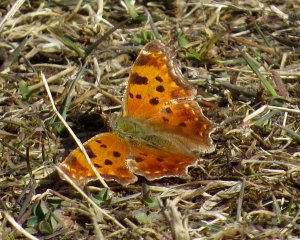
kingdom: Animalia
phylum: Arthropoda
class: Insecta
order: Lepidoptera
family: Nymphalidae
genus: Polygonia
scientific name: Polygonia comma
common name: Eastern Comma
